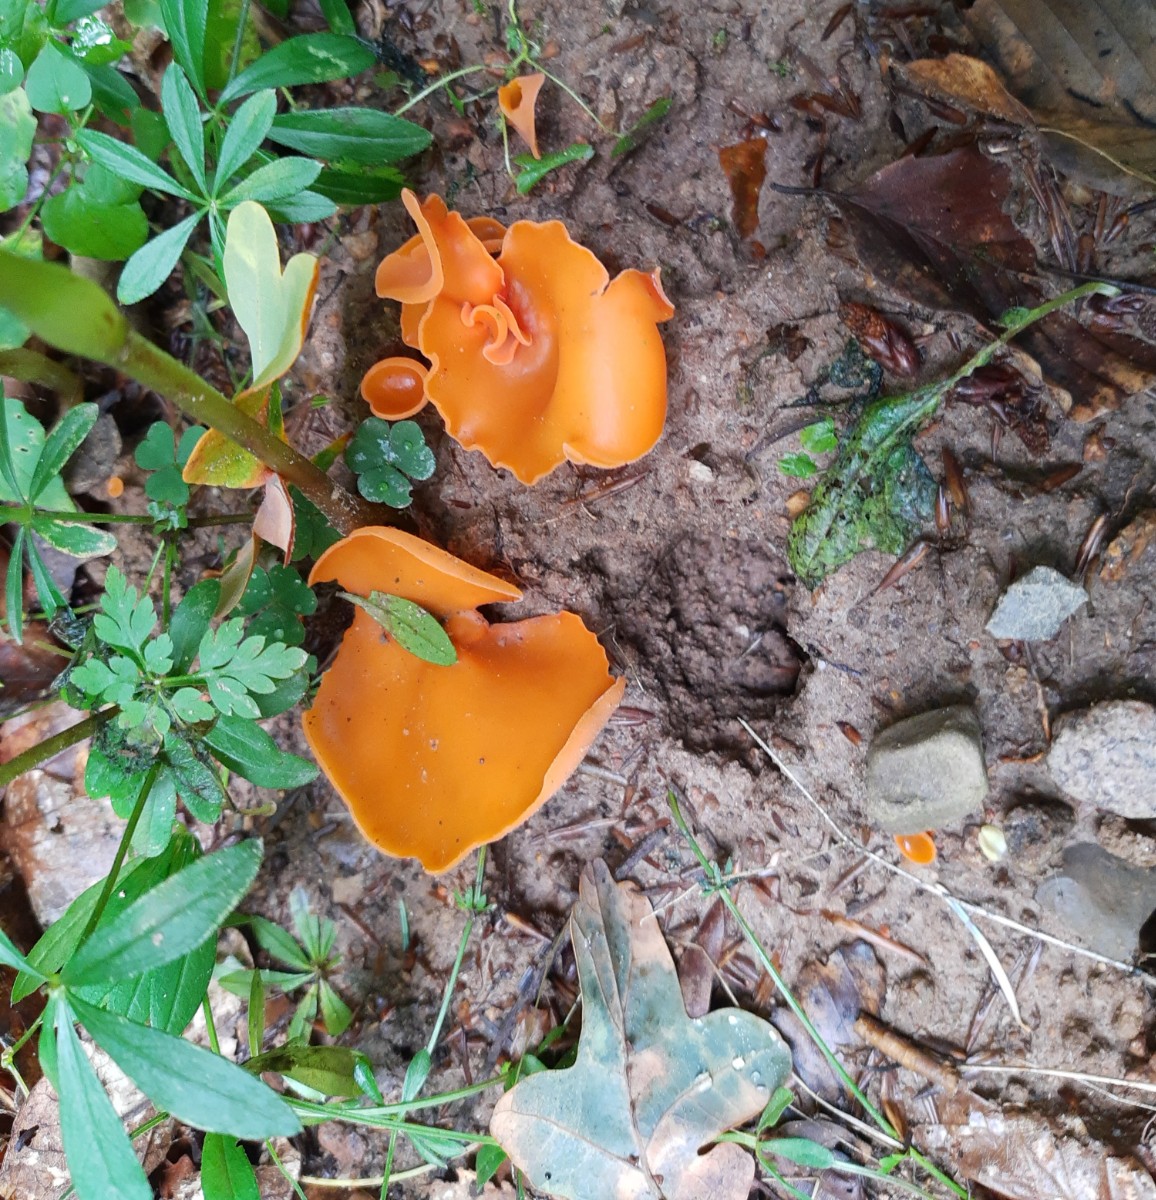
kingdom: Fungi
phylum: Ascomycota
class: Pezizomycetes
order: Pezizales
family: Pyronemataceae
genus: Aleuria
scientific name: Aleuria aurantia
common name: almindelig orangebæger
